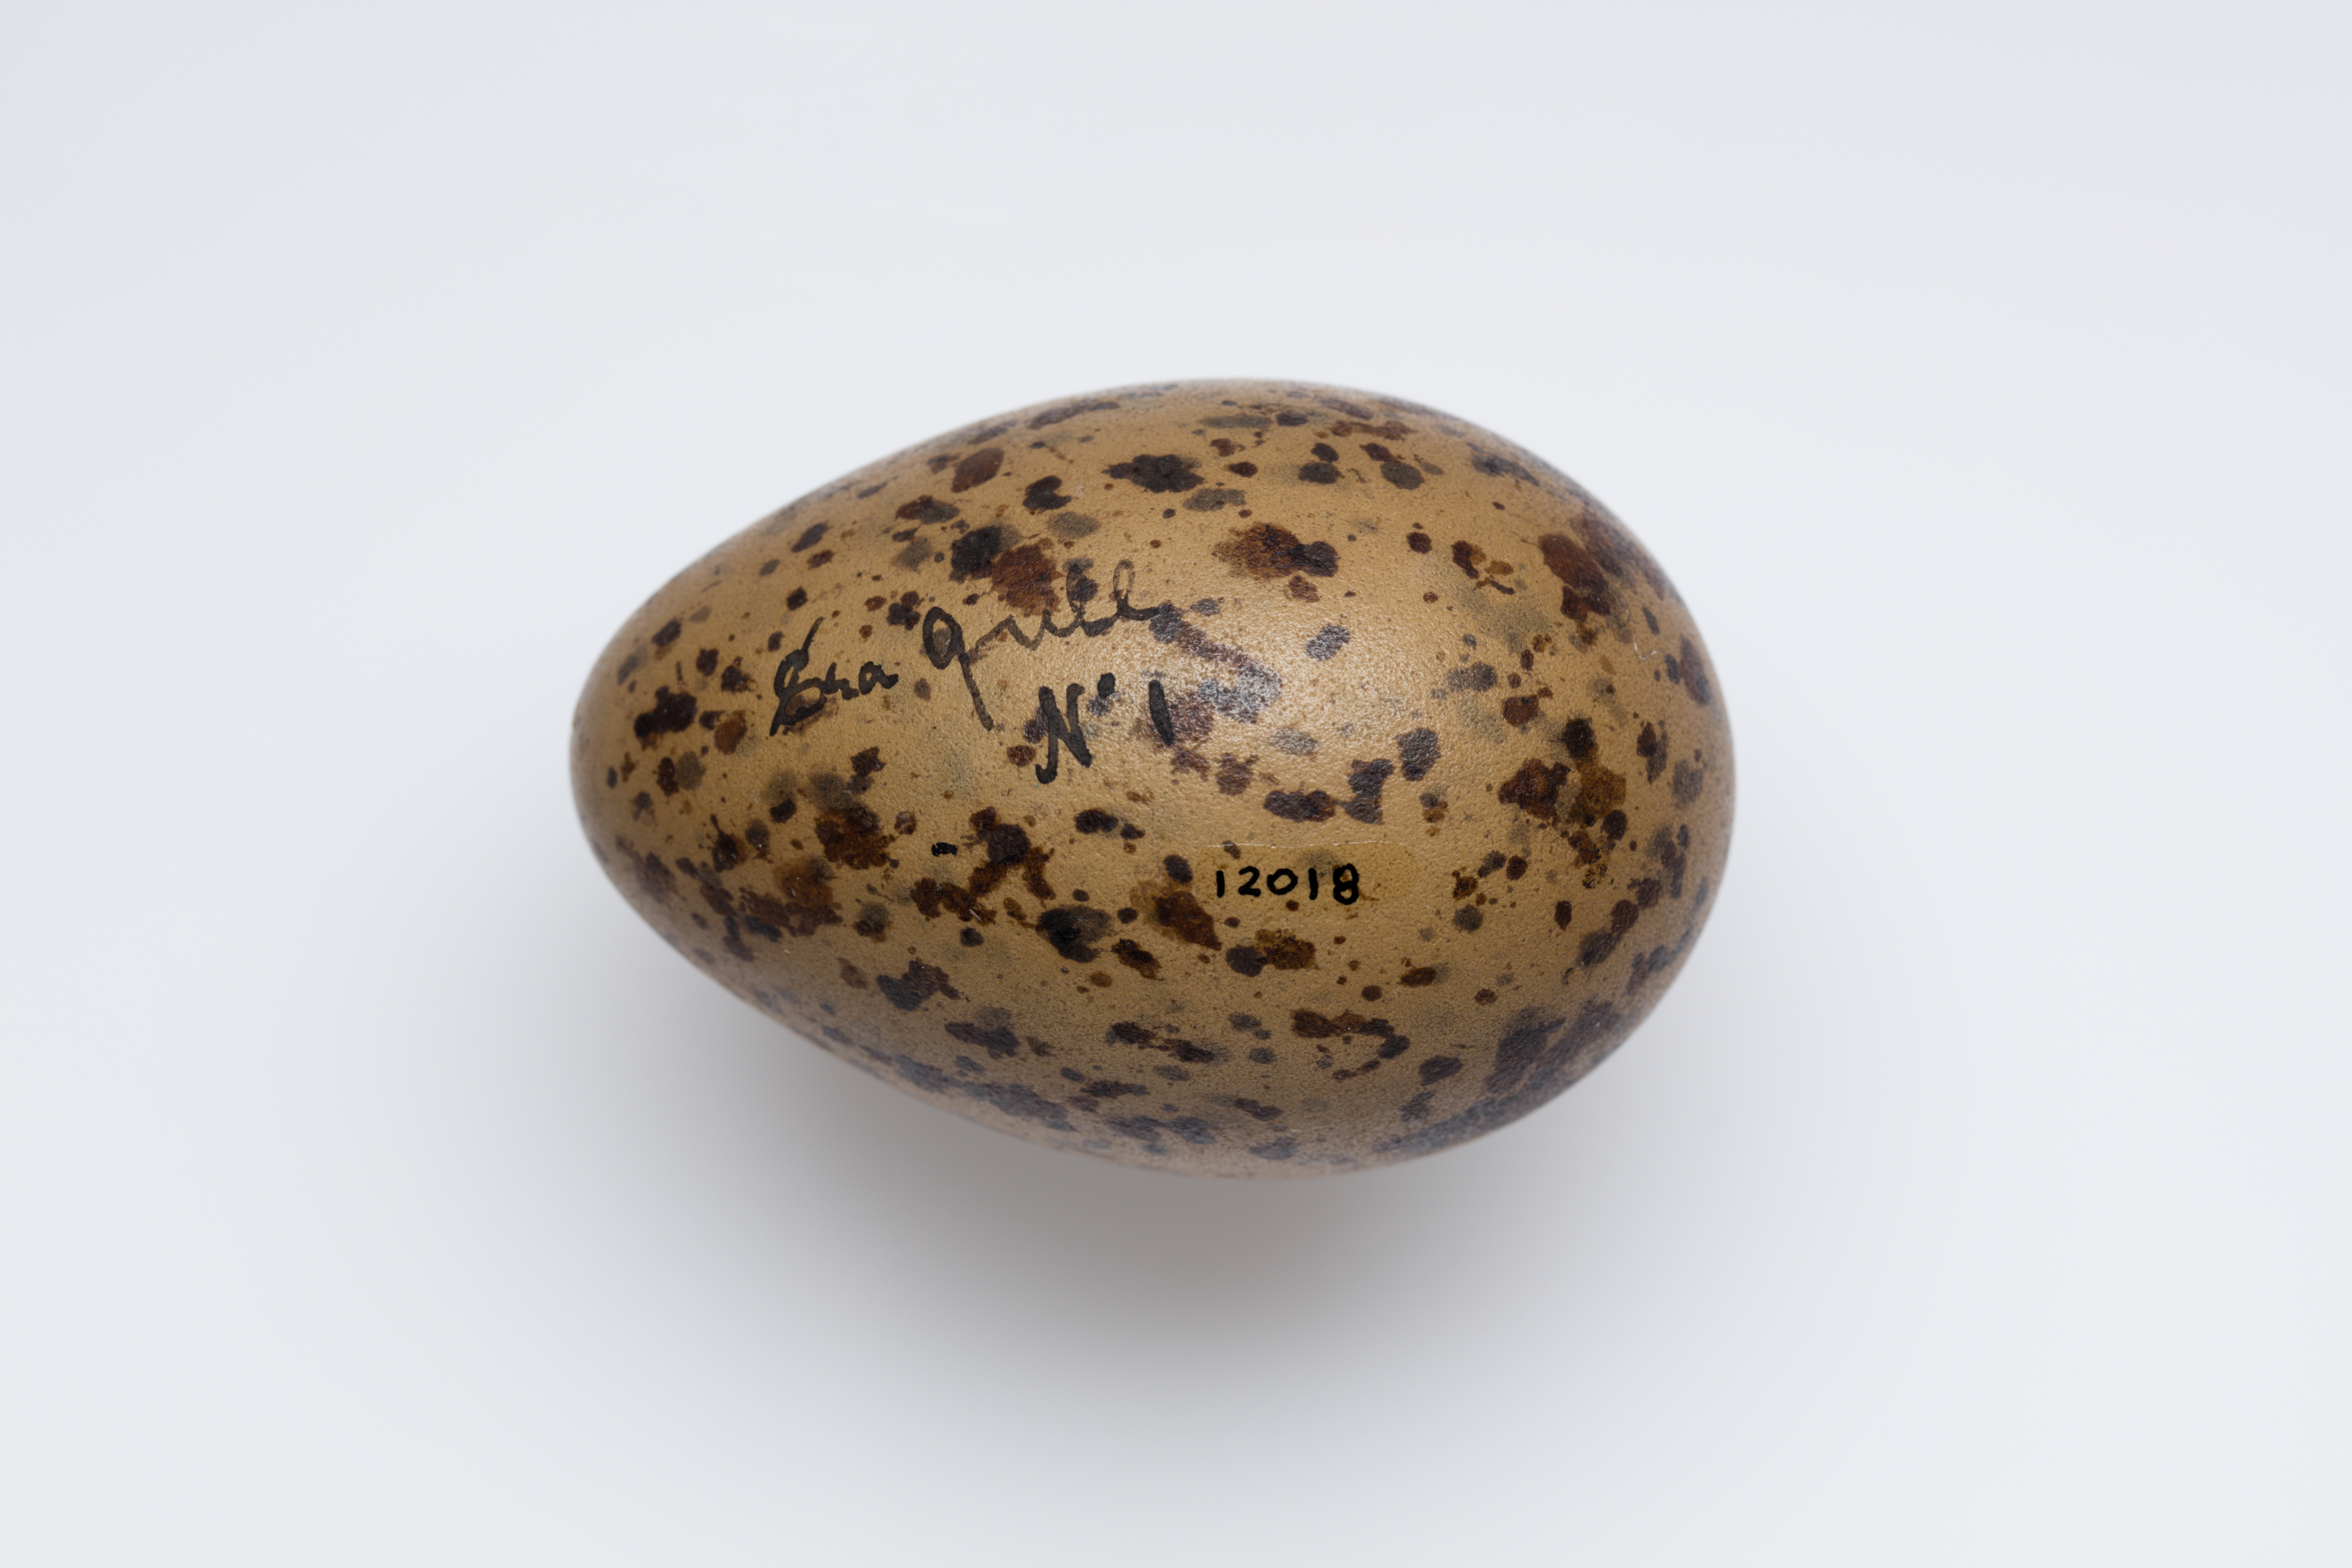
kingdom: Animalia
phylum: Chordata
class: Aves
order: Charadriiformes
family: Laridae
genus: Larus
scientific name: Larus
